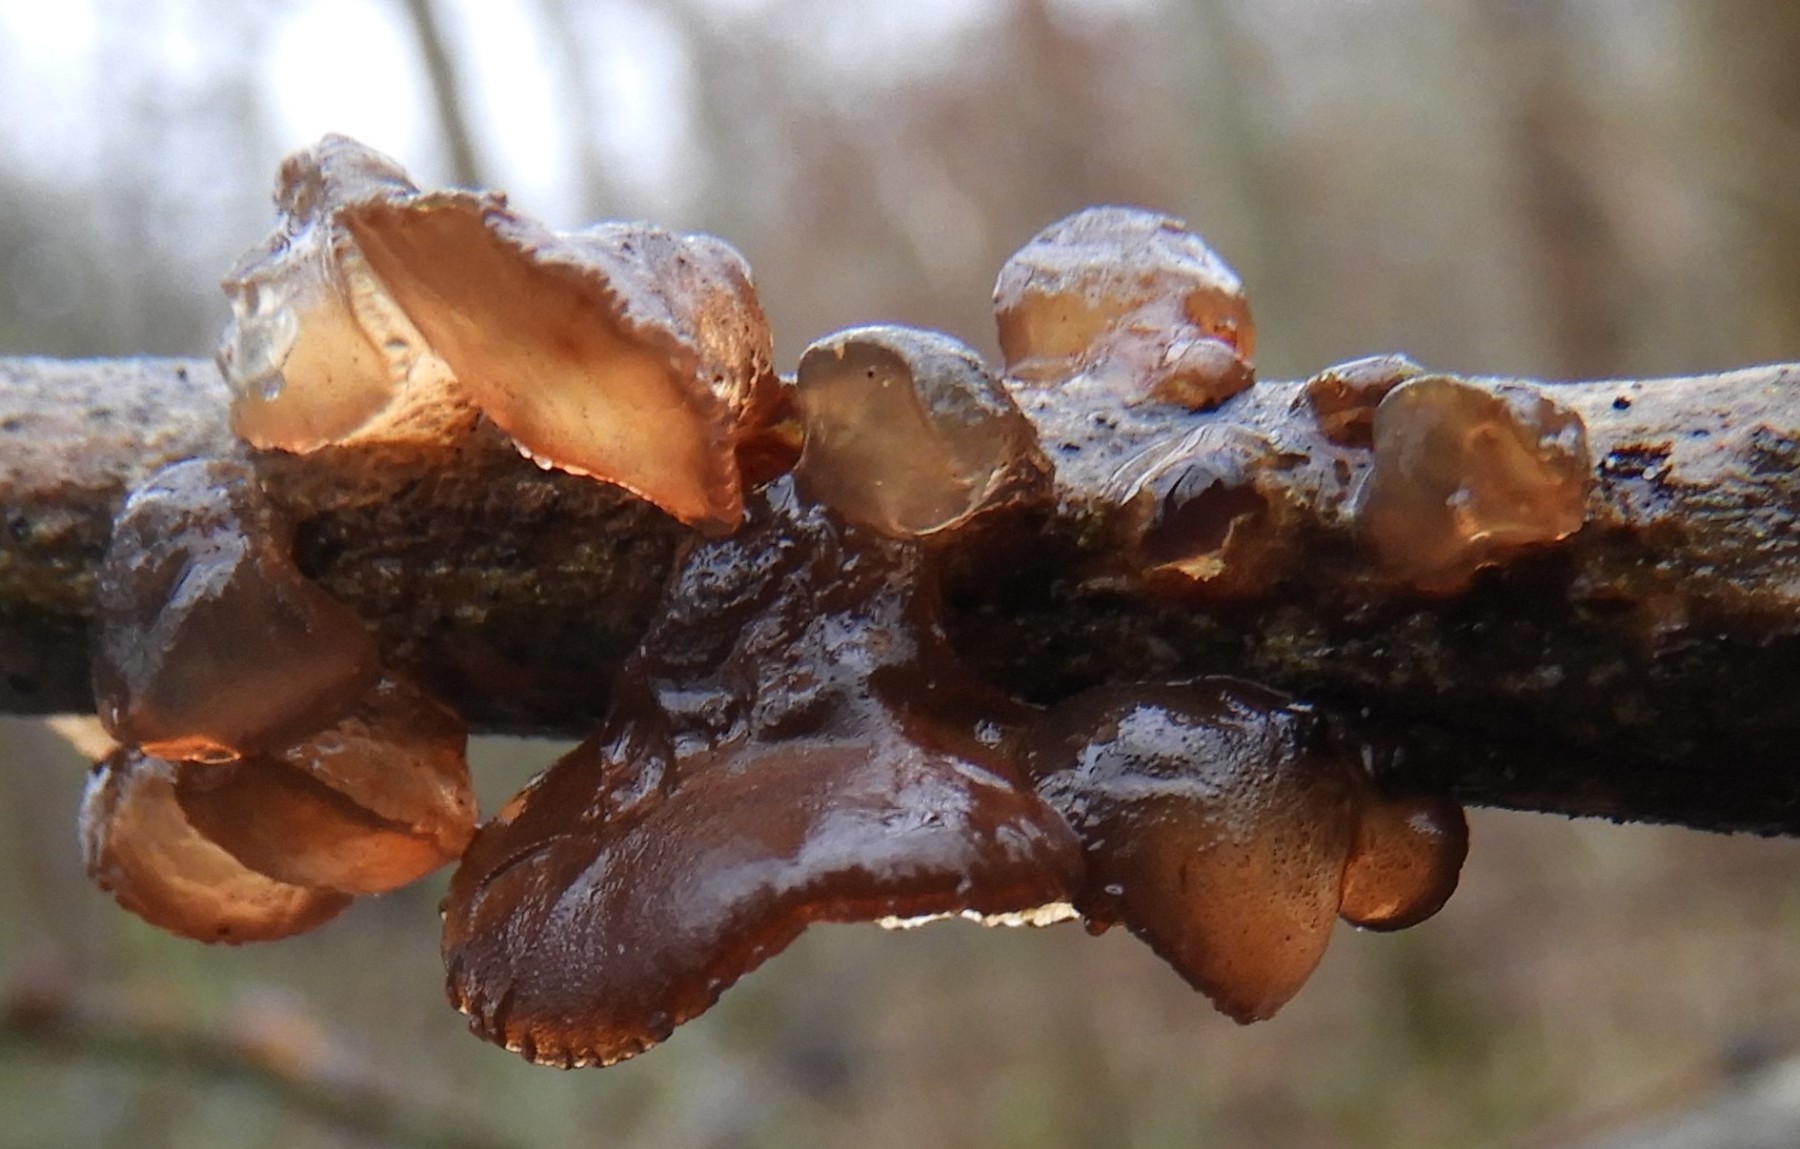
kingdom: Fungi
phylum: Basidiomycota
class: Agaricomycetes
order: Auriculariales
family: Auriculariaceae
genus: Exidia
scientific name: Exidia recisa
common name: pile-bævretop
